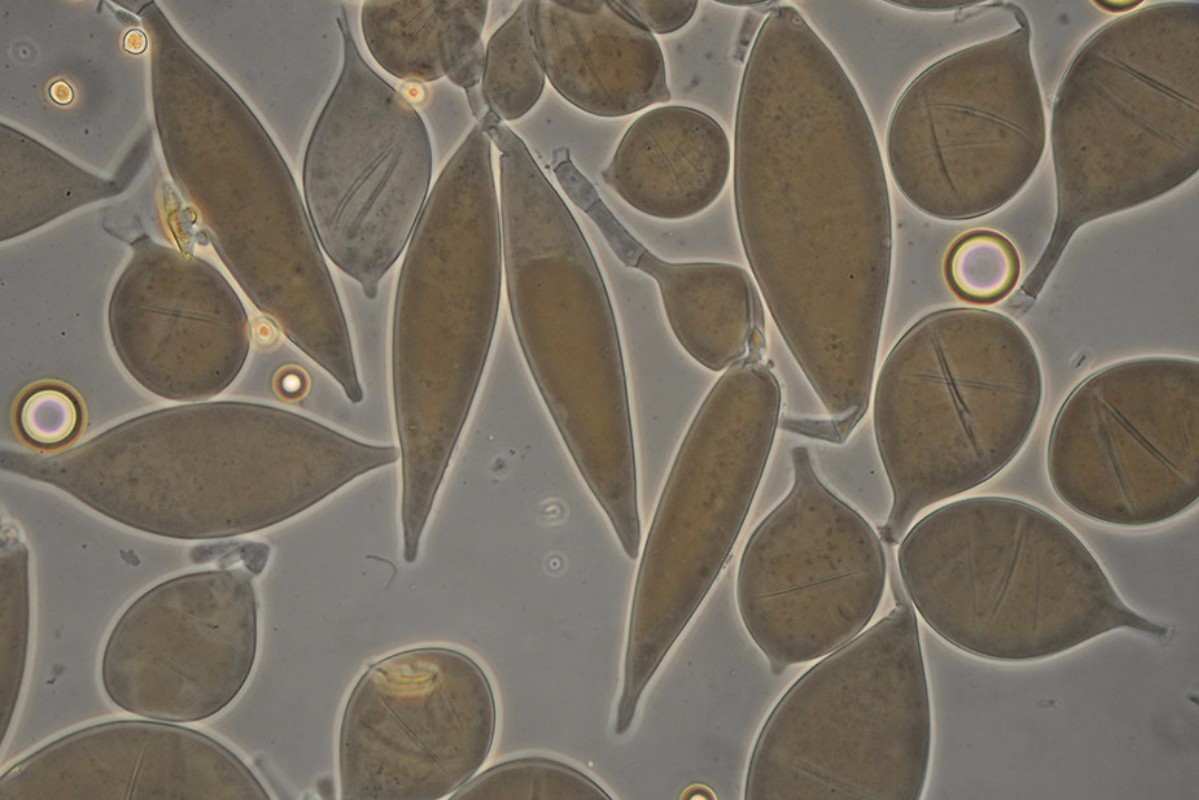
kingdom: Fungi
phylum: Basidiomycota
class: Agaricomycetes
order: Agaricales
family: Pluteaceae
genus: Pluteus
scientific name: Pluteus podospileus
